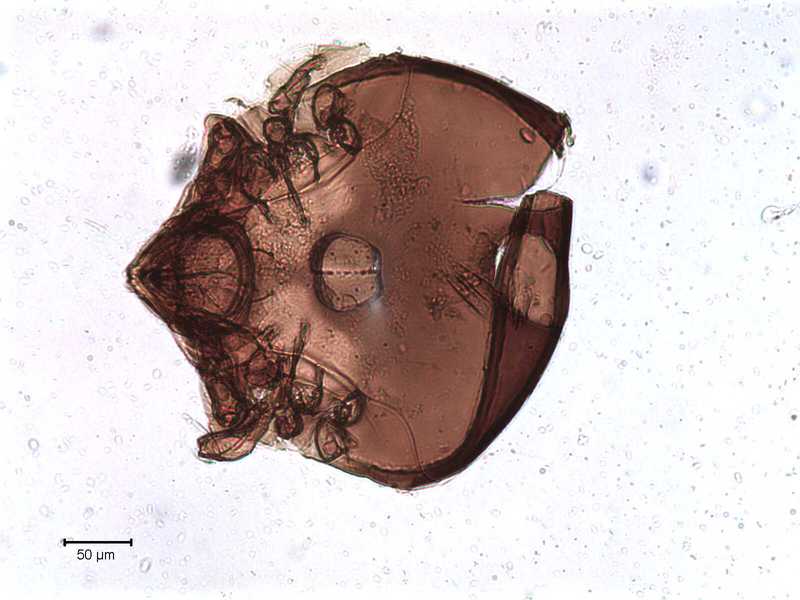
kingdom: Animalia
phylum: Arthropoda
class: Arachnida
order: Sarcoptiformes
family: Tegoribatidae
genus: Plakoribates
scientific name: Plakoribates multicuspidatus
